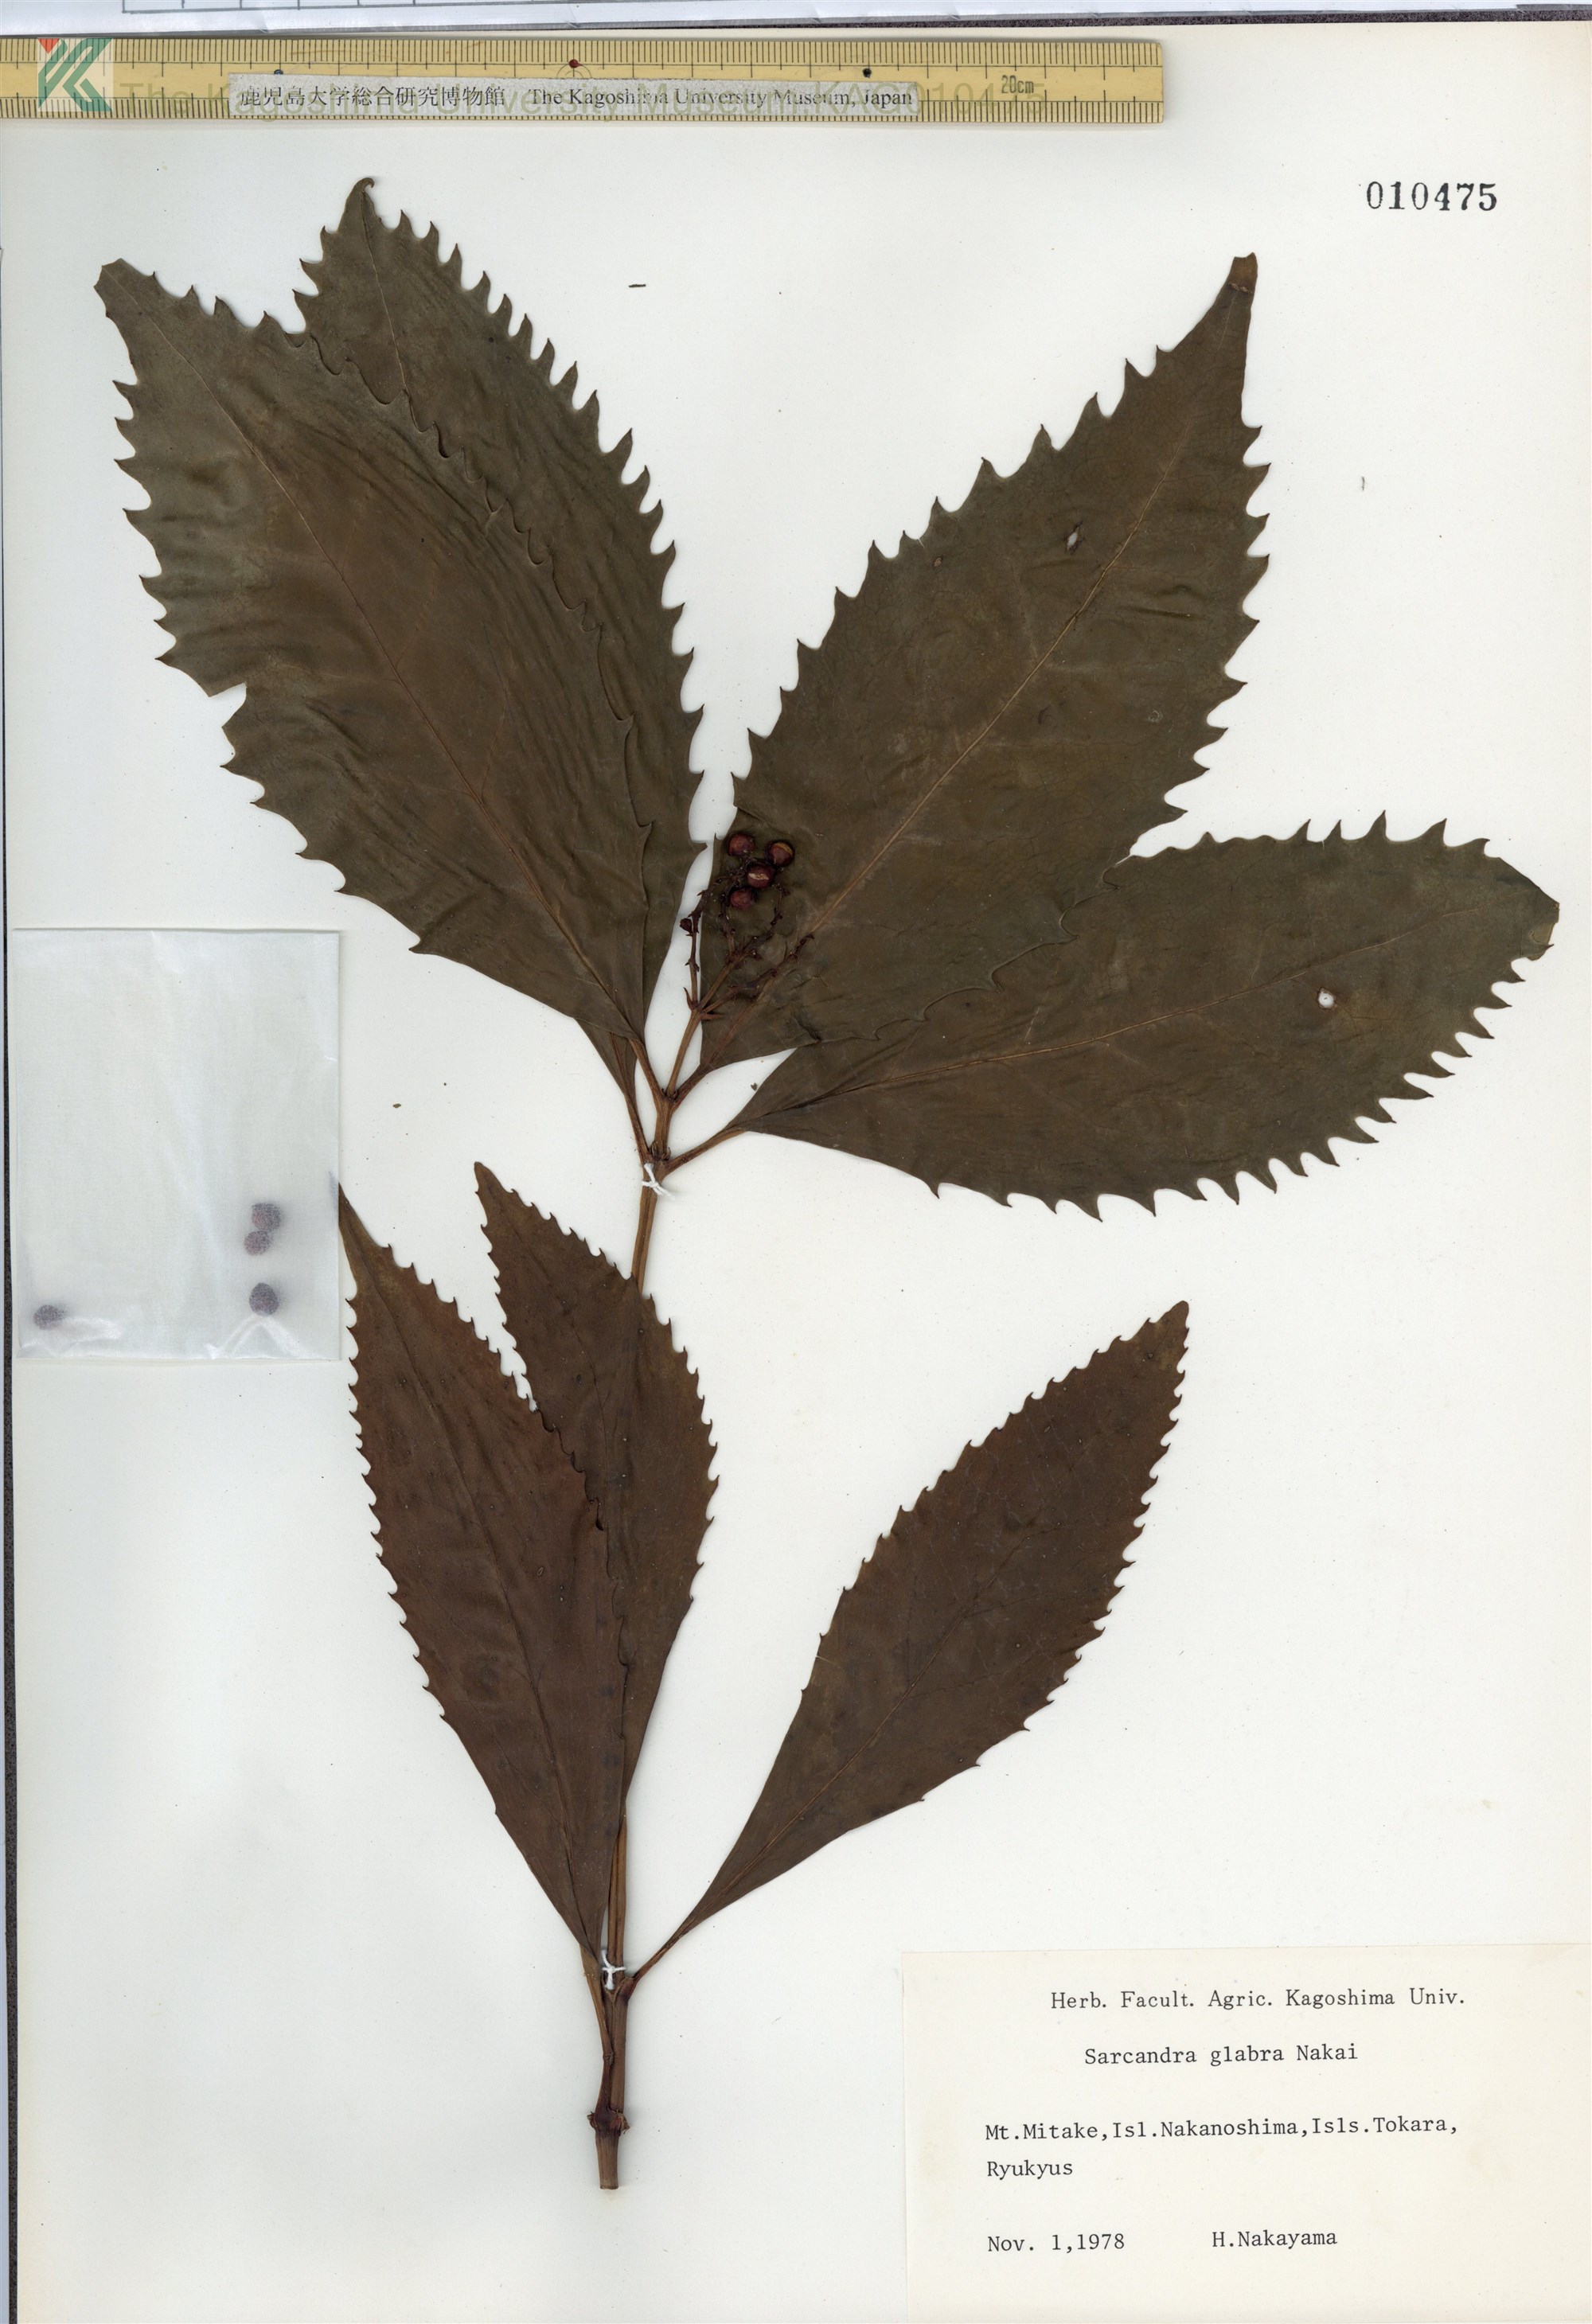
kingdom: Plantae
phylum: Tracheophyta
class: Magnoliopsida
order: Chloranthales
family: Chloranthaceae
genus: Sarcandra
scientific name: Sarcandra glabra
